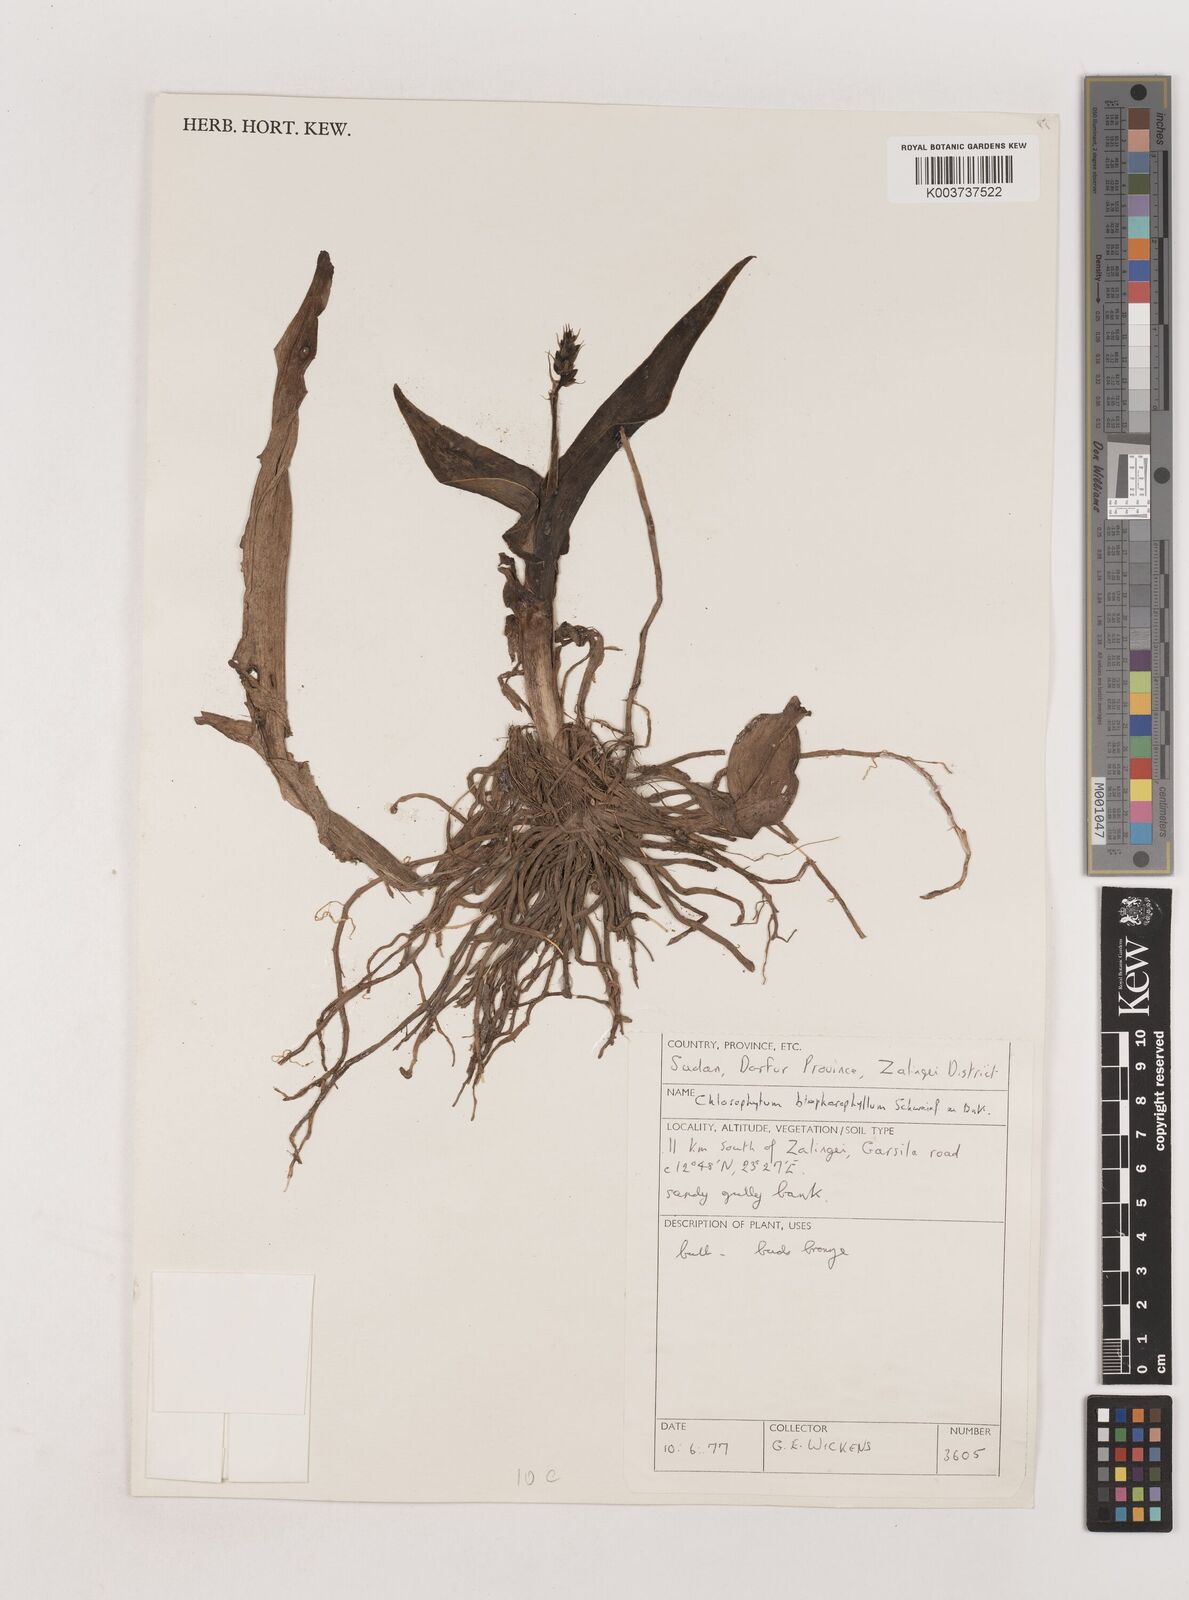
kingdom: Plantae
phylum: Tracheophyta
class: Liliopsida
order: Asparagales
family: Asparagaceae
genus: Chlorophytum
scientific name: Chlorophytum blepharophyllum
